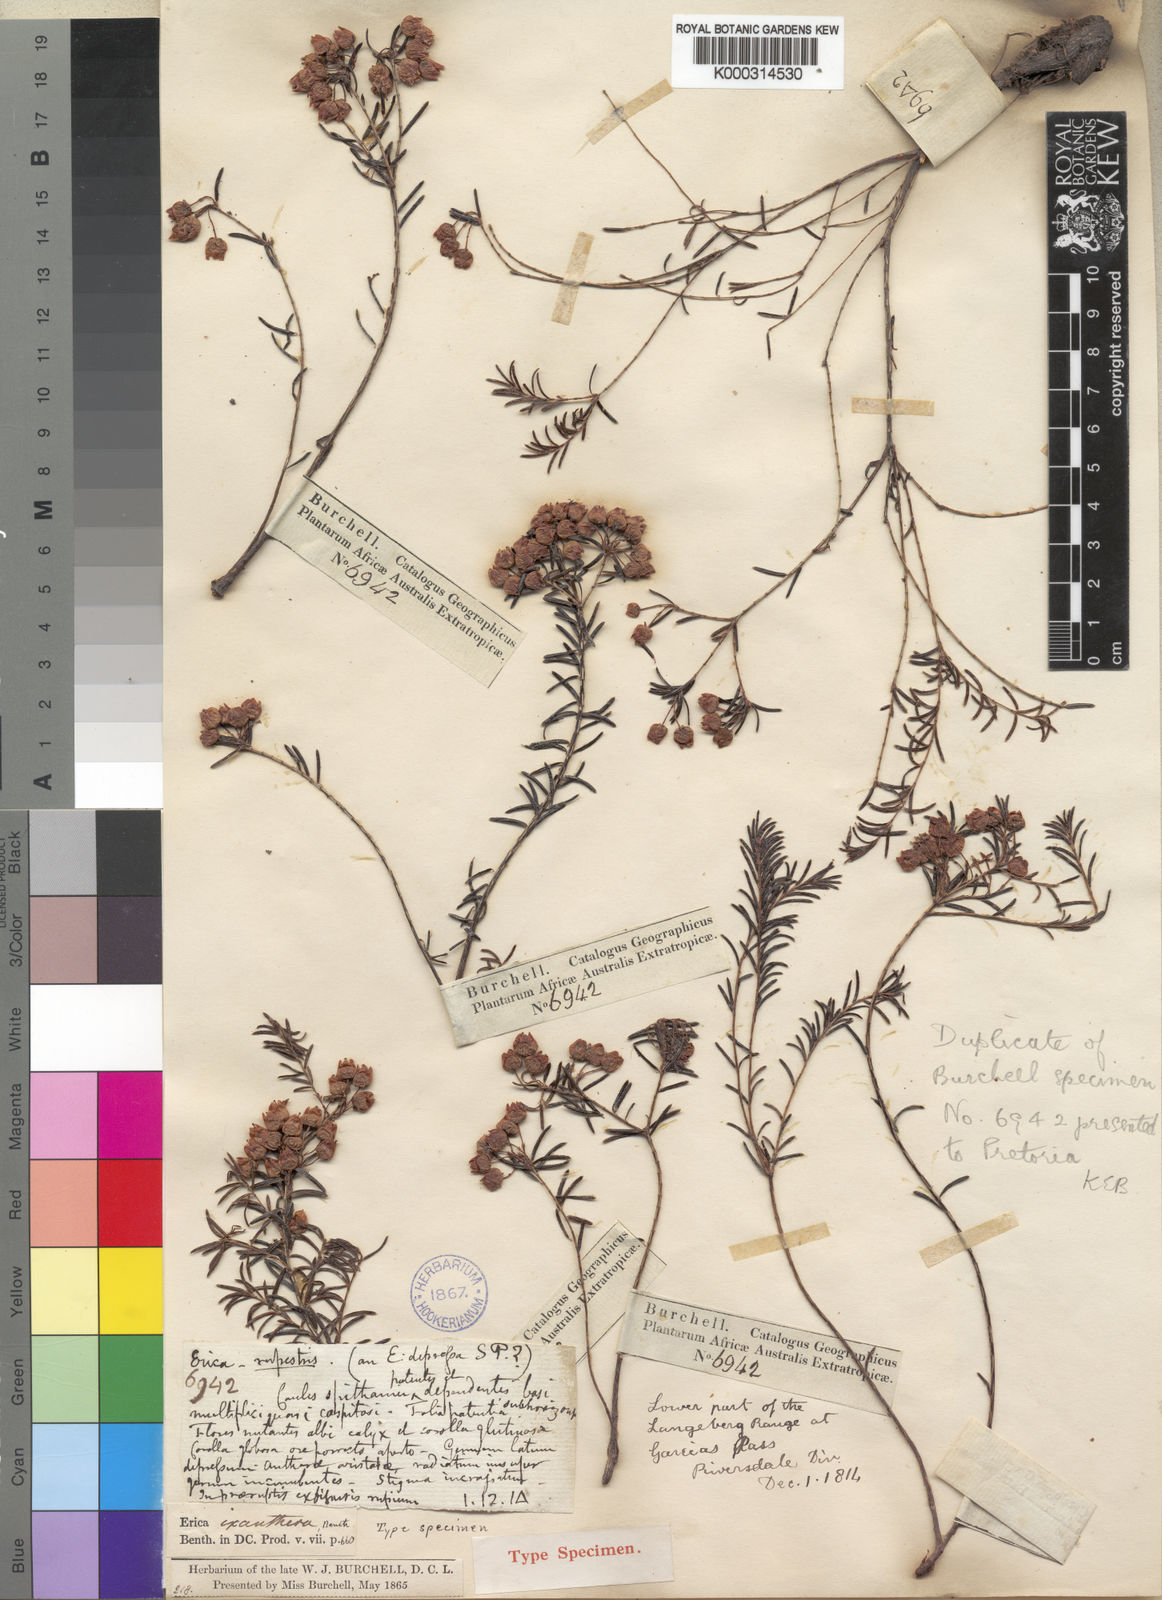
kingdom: Plantae
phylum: Tracheophyta
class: Magnoliopsida
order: Ericales
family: Ericaceae
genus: Erica
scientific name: Erica ixanthera
